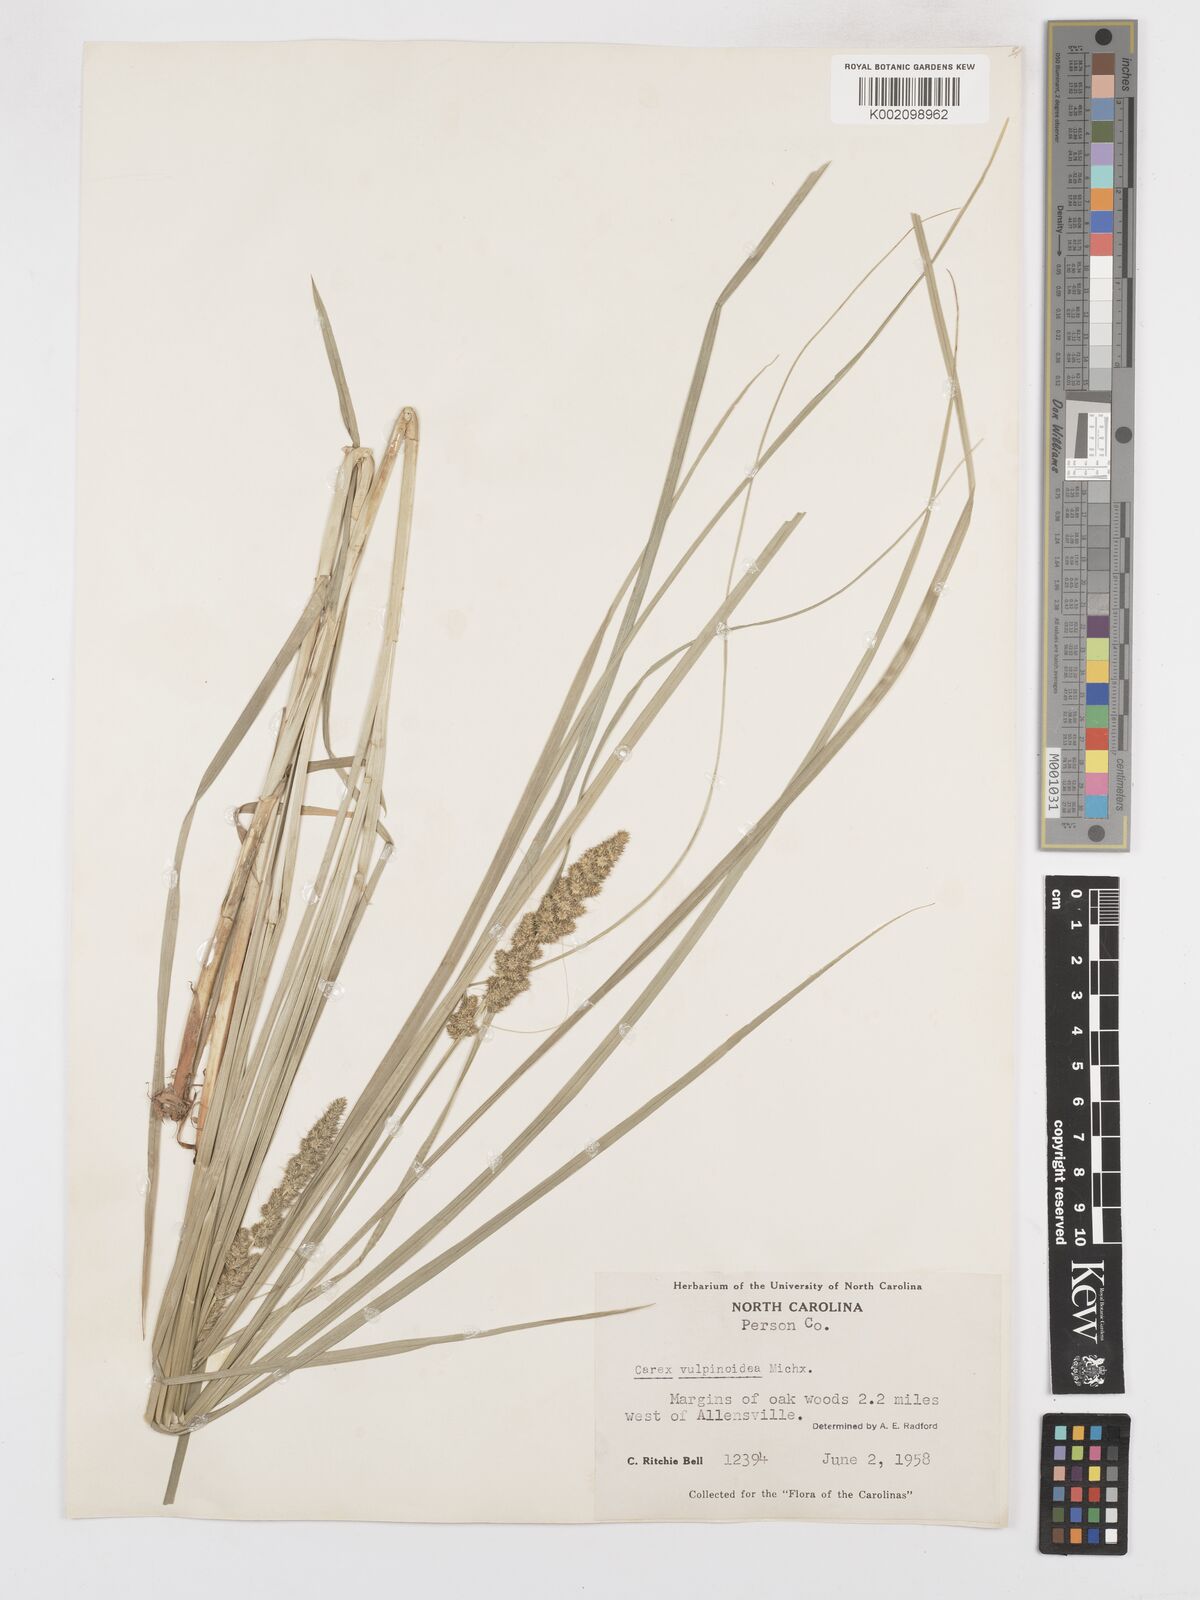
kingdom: Plantae
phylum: Tracheophyta
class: Liliopsida
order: Poales
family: Cyperaceae
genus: Carex
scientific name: Carex vulpinoidea
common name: American fox-sedge
